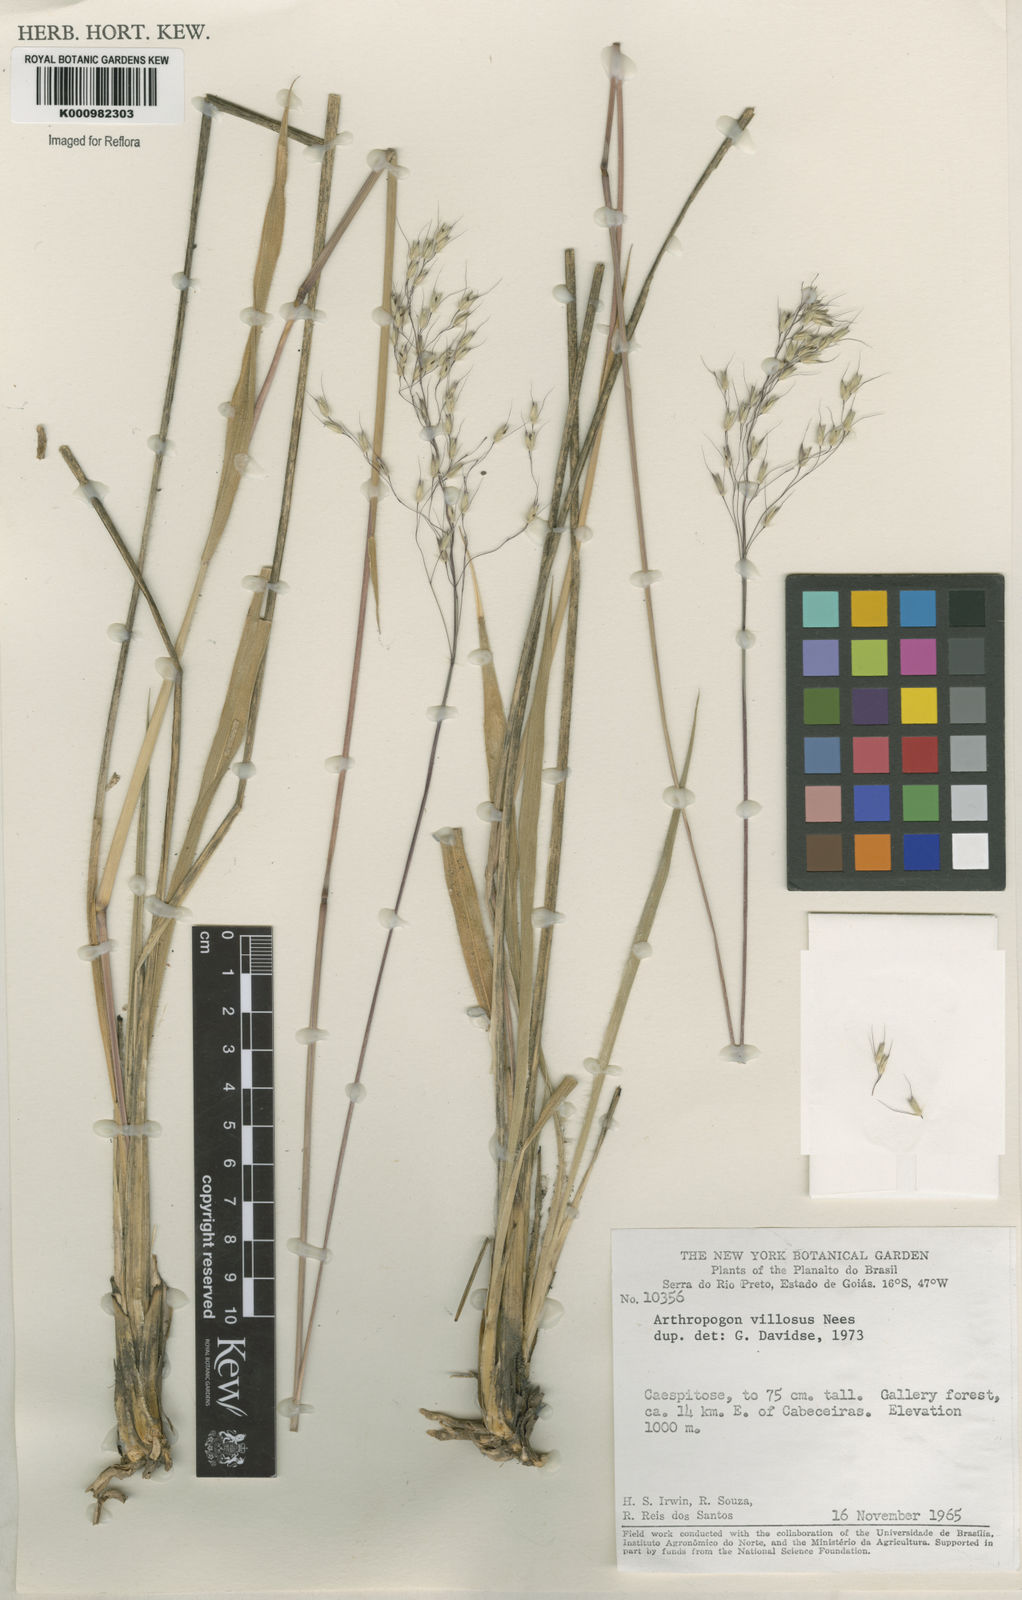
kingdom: Plantae
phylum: Tracheophyta
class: Liliopsida
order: Poales
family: Poaceae
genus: Arthropogon
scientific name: Arthropogon villosus
